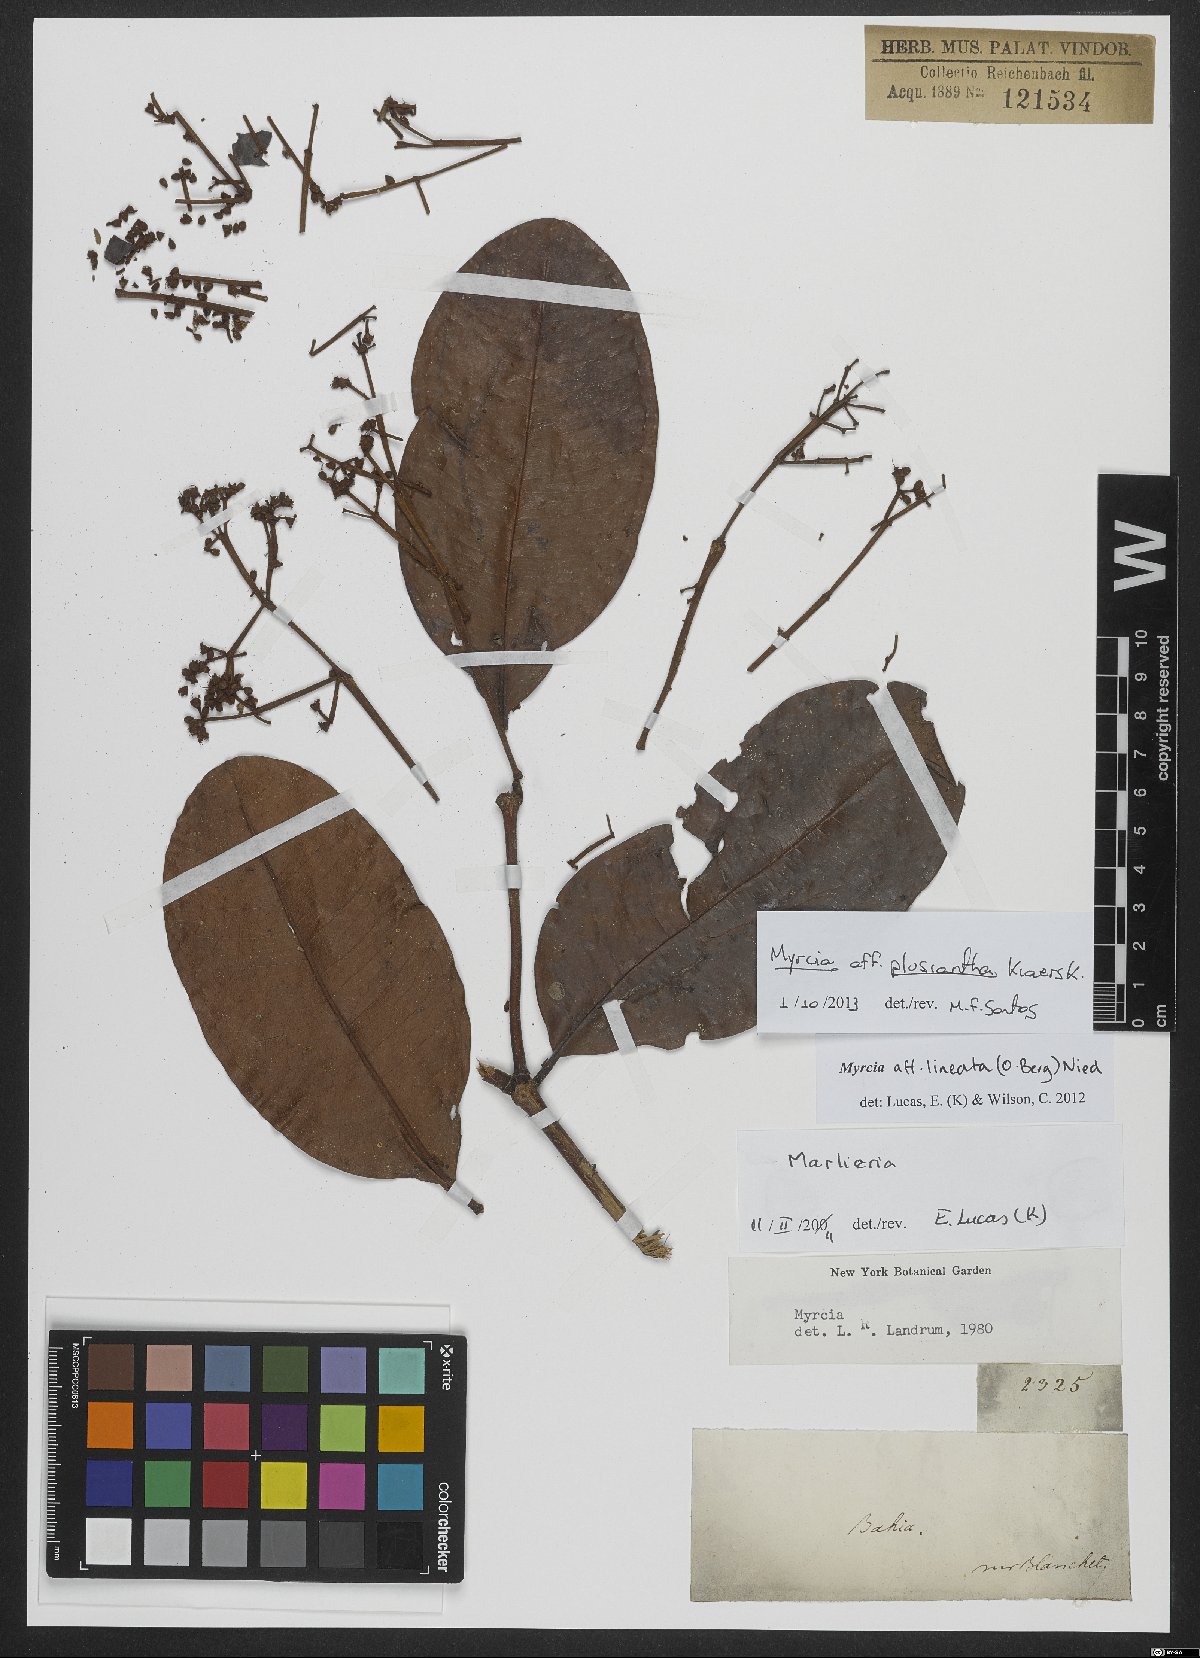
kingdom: Plantae
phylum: Tracheophyta
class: Magnoliopsida
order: Myrtales
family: Myrtaceae
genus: Myrcia
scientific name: Myrcia plusiantha
